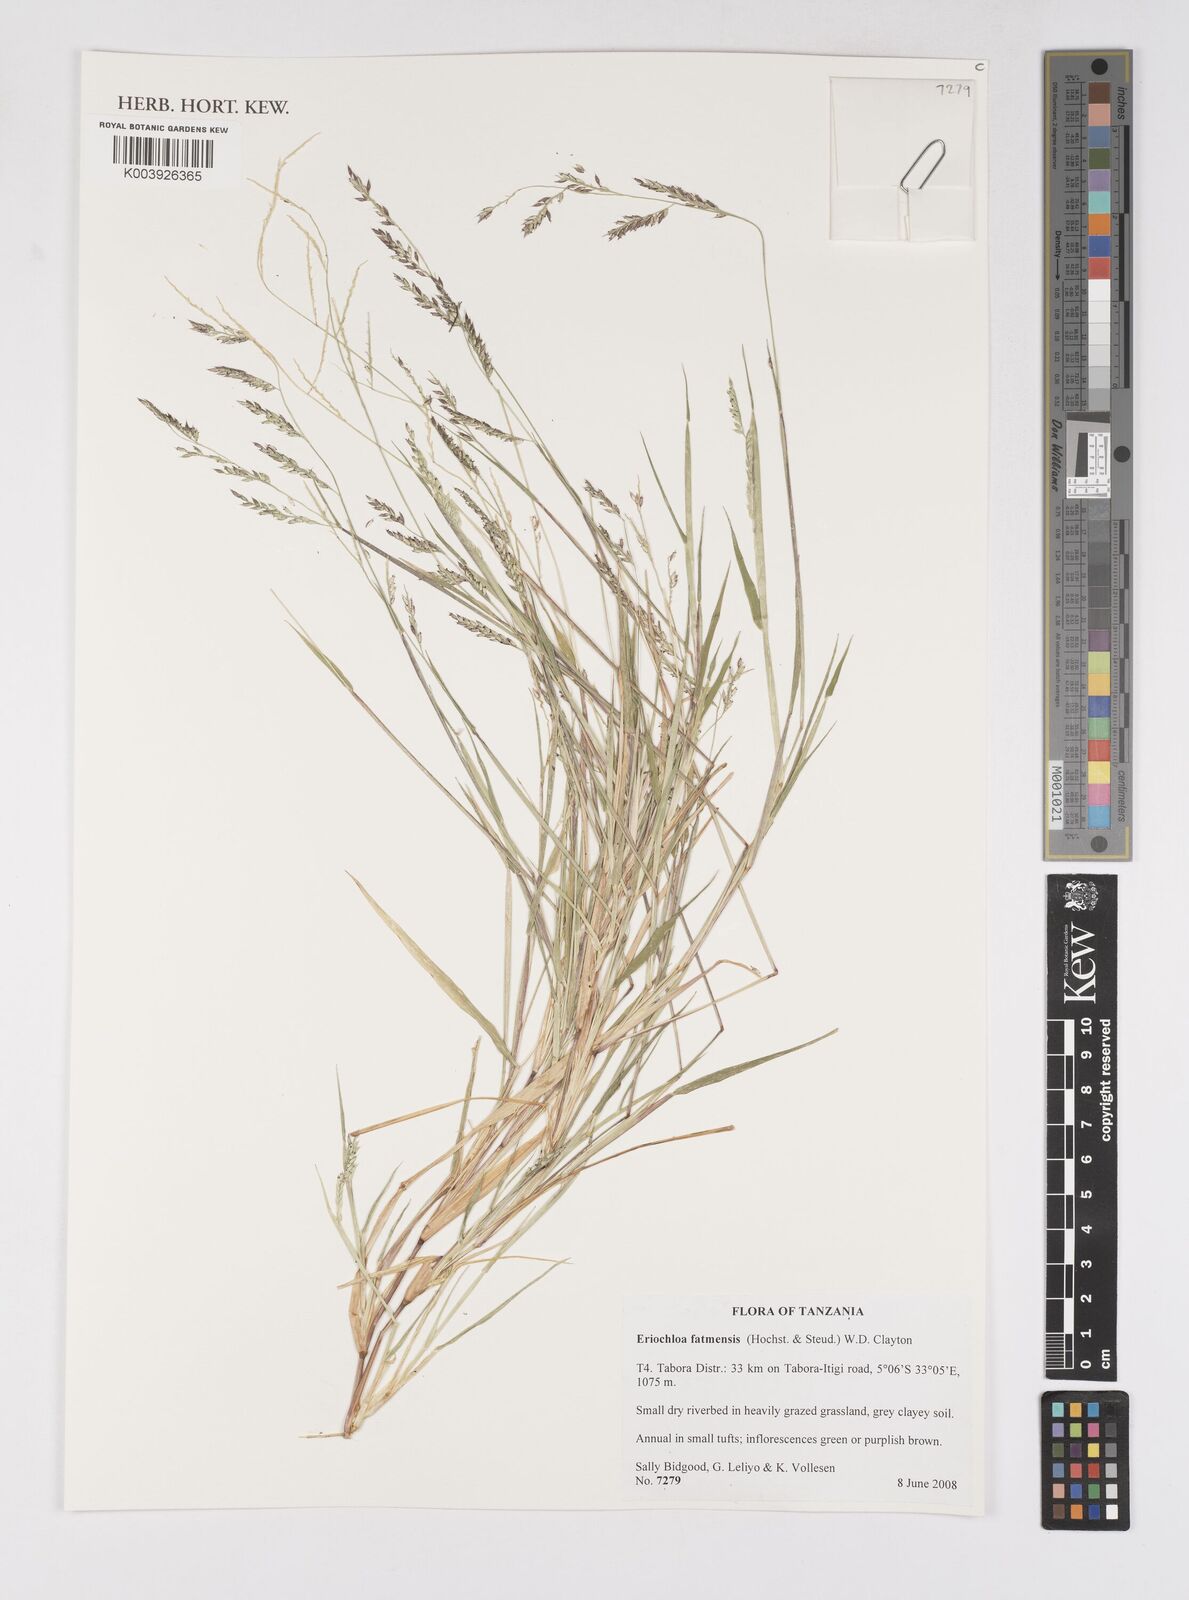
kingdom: Plantae
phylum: Tracheophyta
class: Liliopsida
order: Poales
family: Poaceae
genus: Eriochloa
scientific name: Eriochloa barbatus
